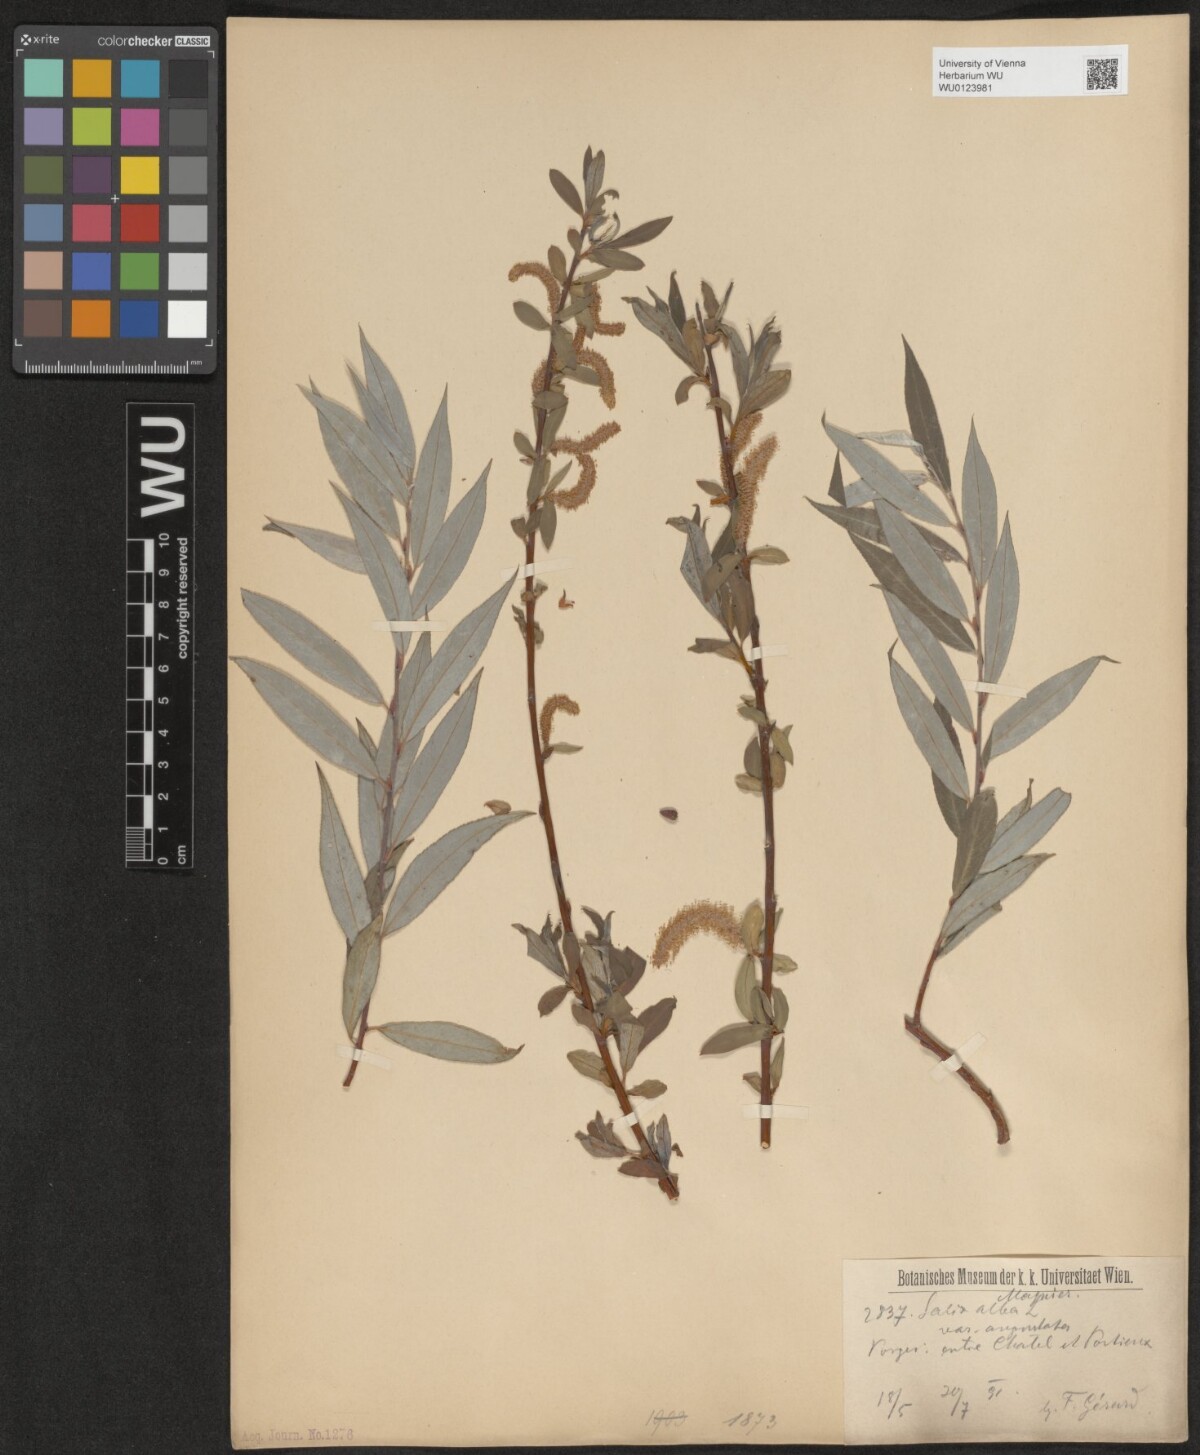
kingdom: Plantae
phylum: Tracheophyta
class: Magnoliopsida
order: Malpighiales
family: Salicaceae
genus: Salix
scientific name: Salix alba
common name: White willow
